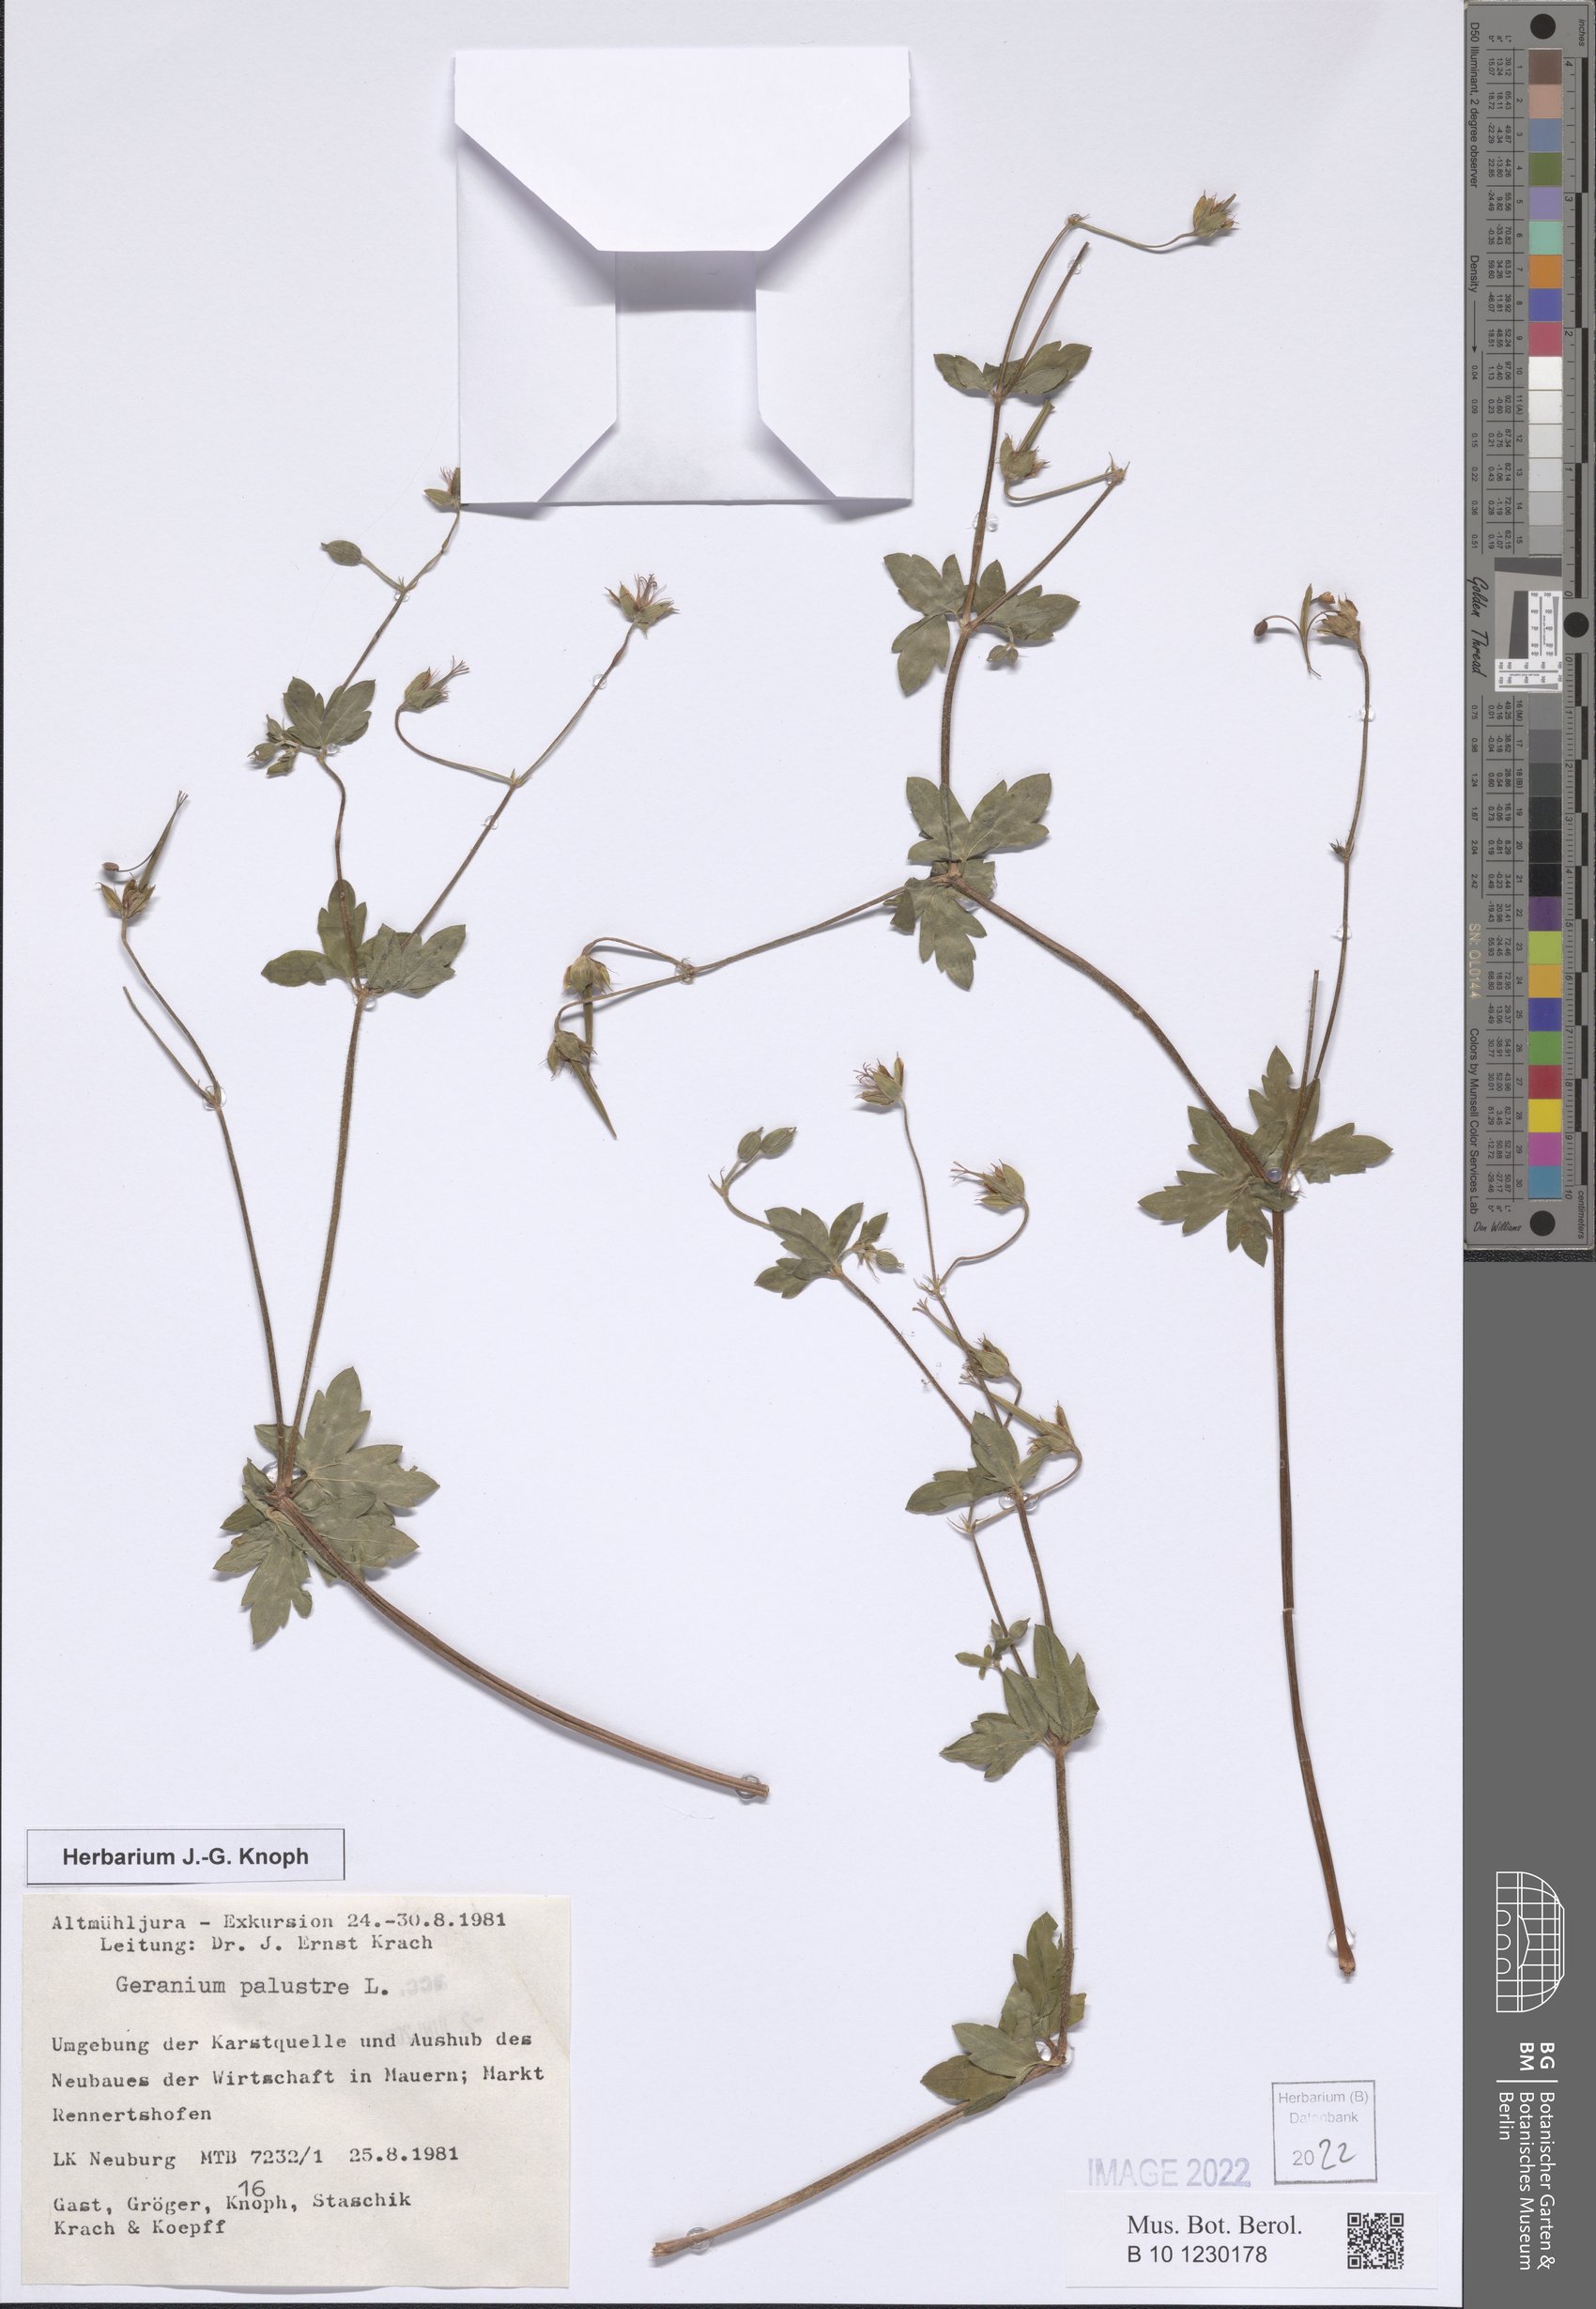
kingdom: Plantae
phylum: Tracheophyta
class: Magnoliopsida
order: Geraniales
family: Geraniaceae
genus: Geranium
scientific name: Geranium palustre
